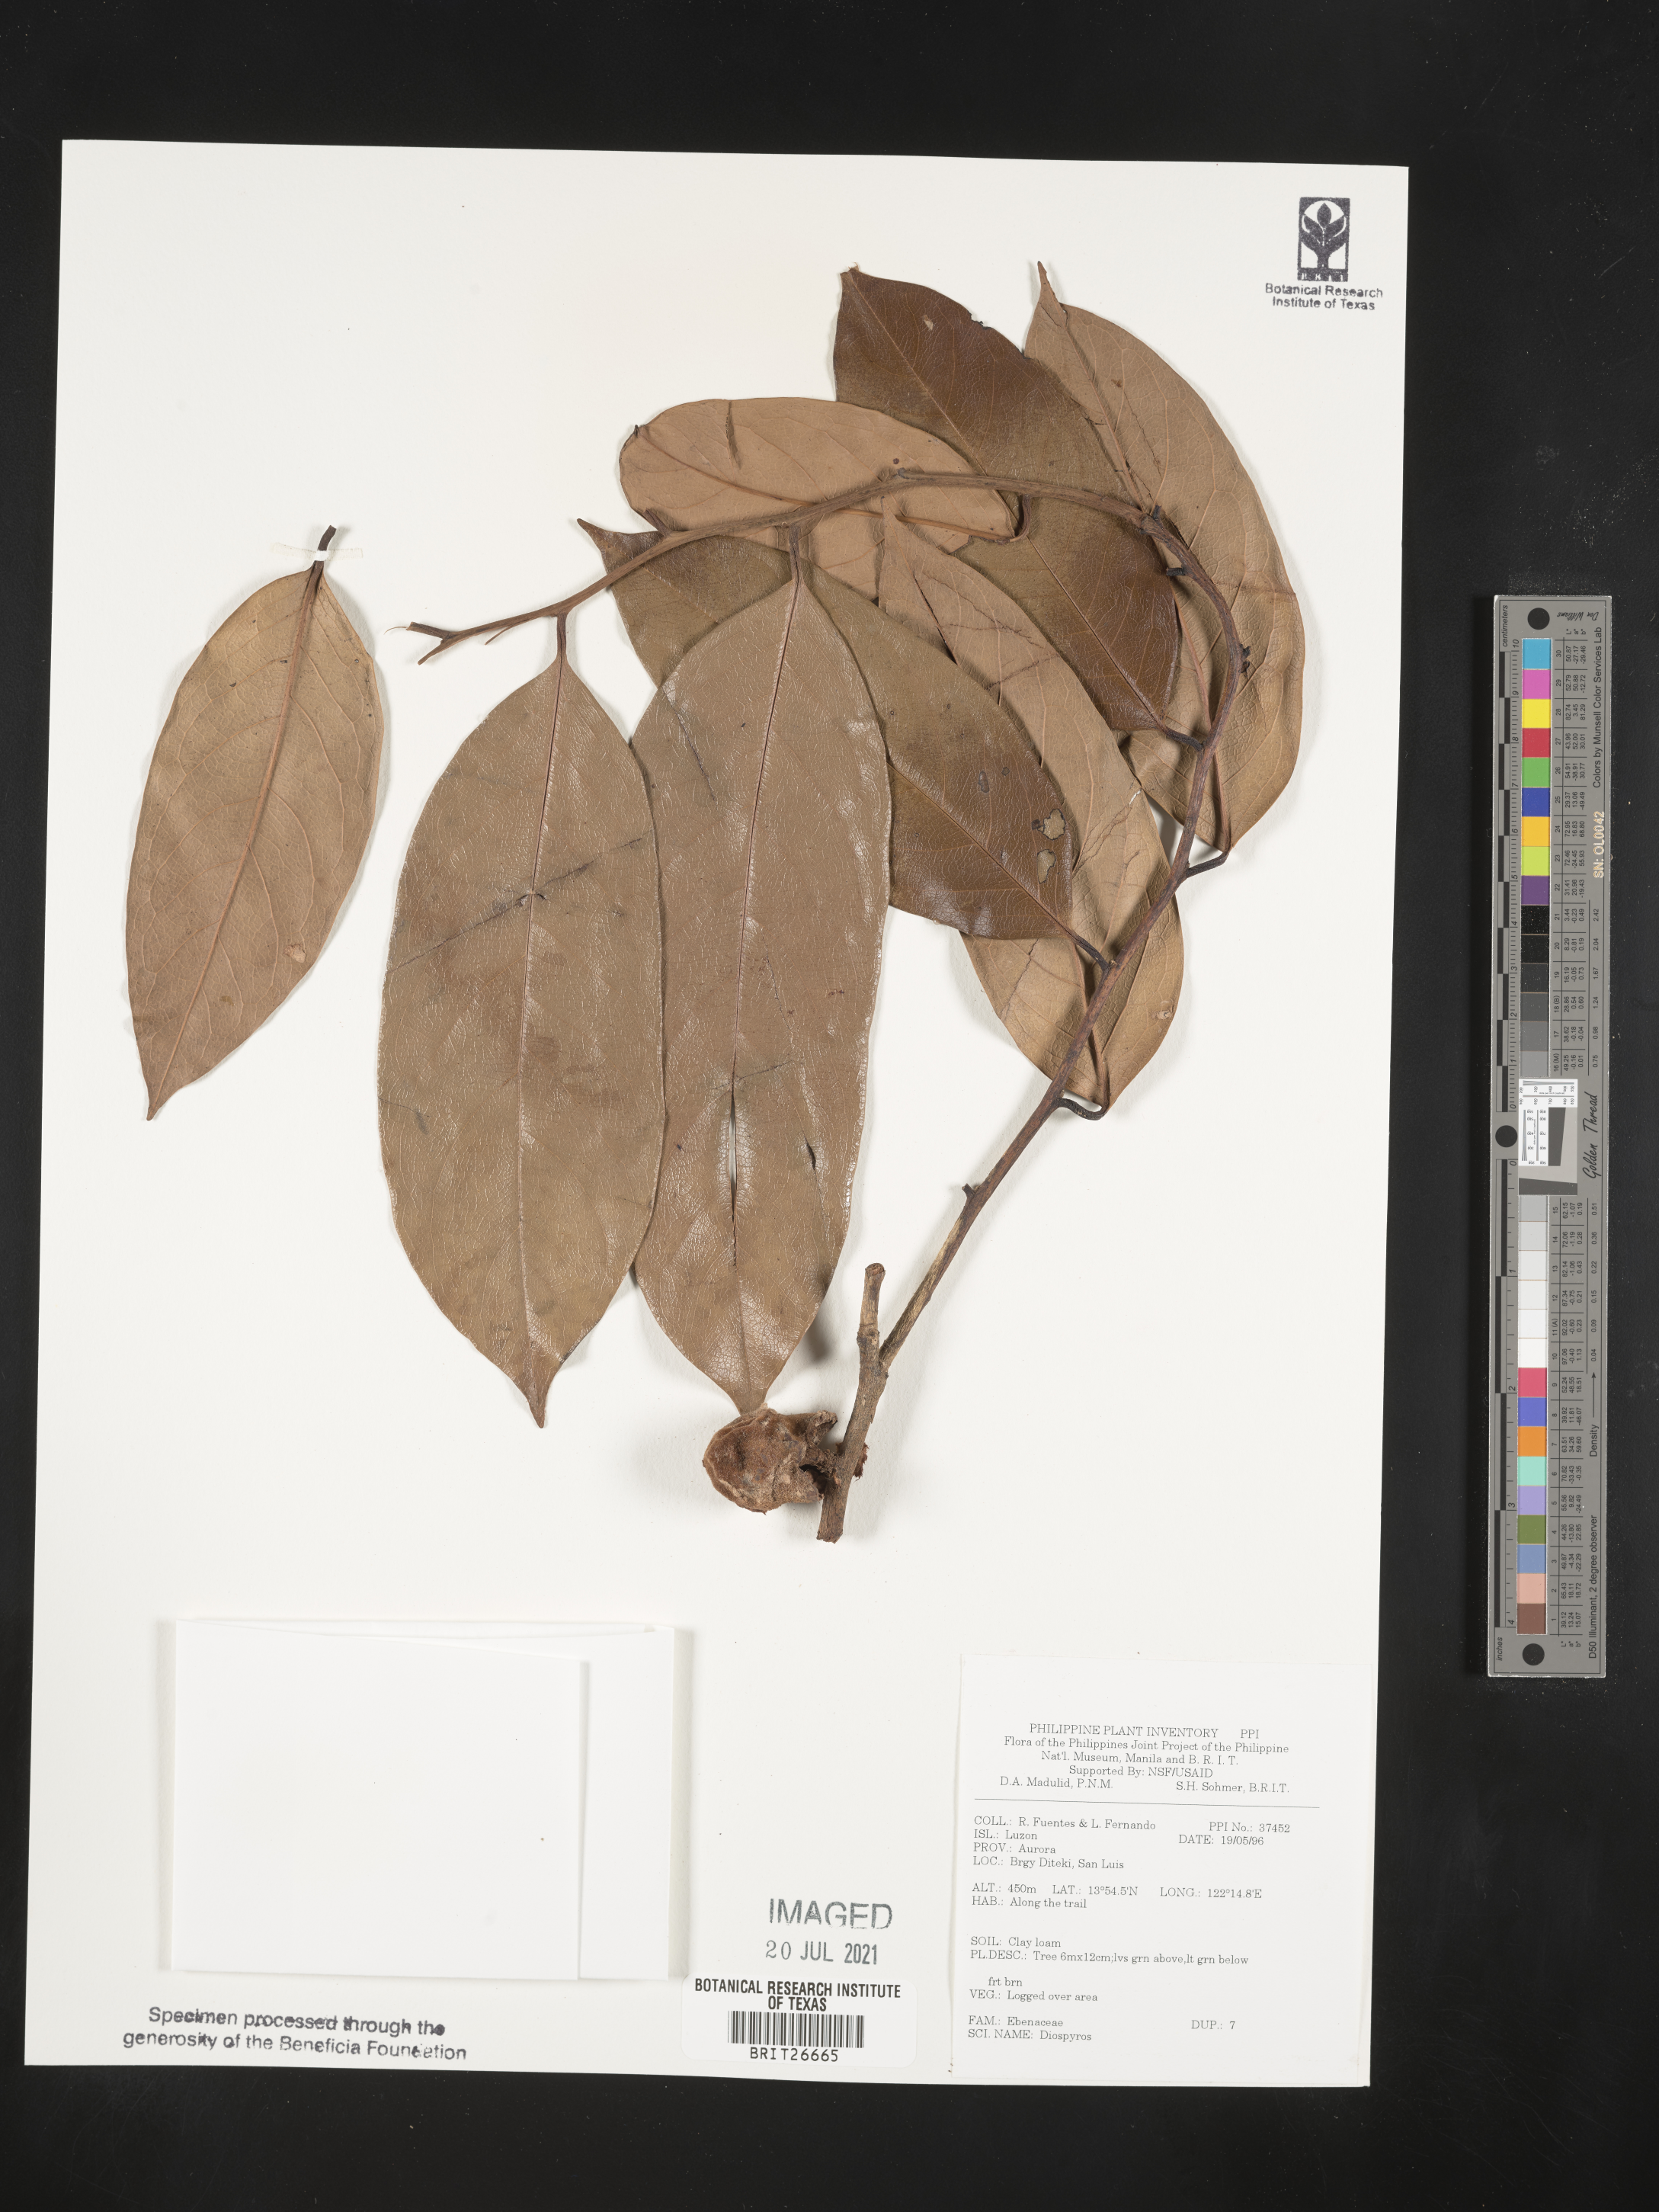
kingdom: Plantae
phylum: Tracheophyta
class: Magnoliopsida
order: Ericales
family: Ebenaceae
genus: Diospyros
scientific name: Diospyros
